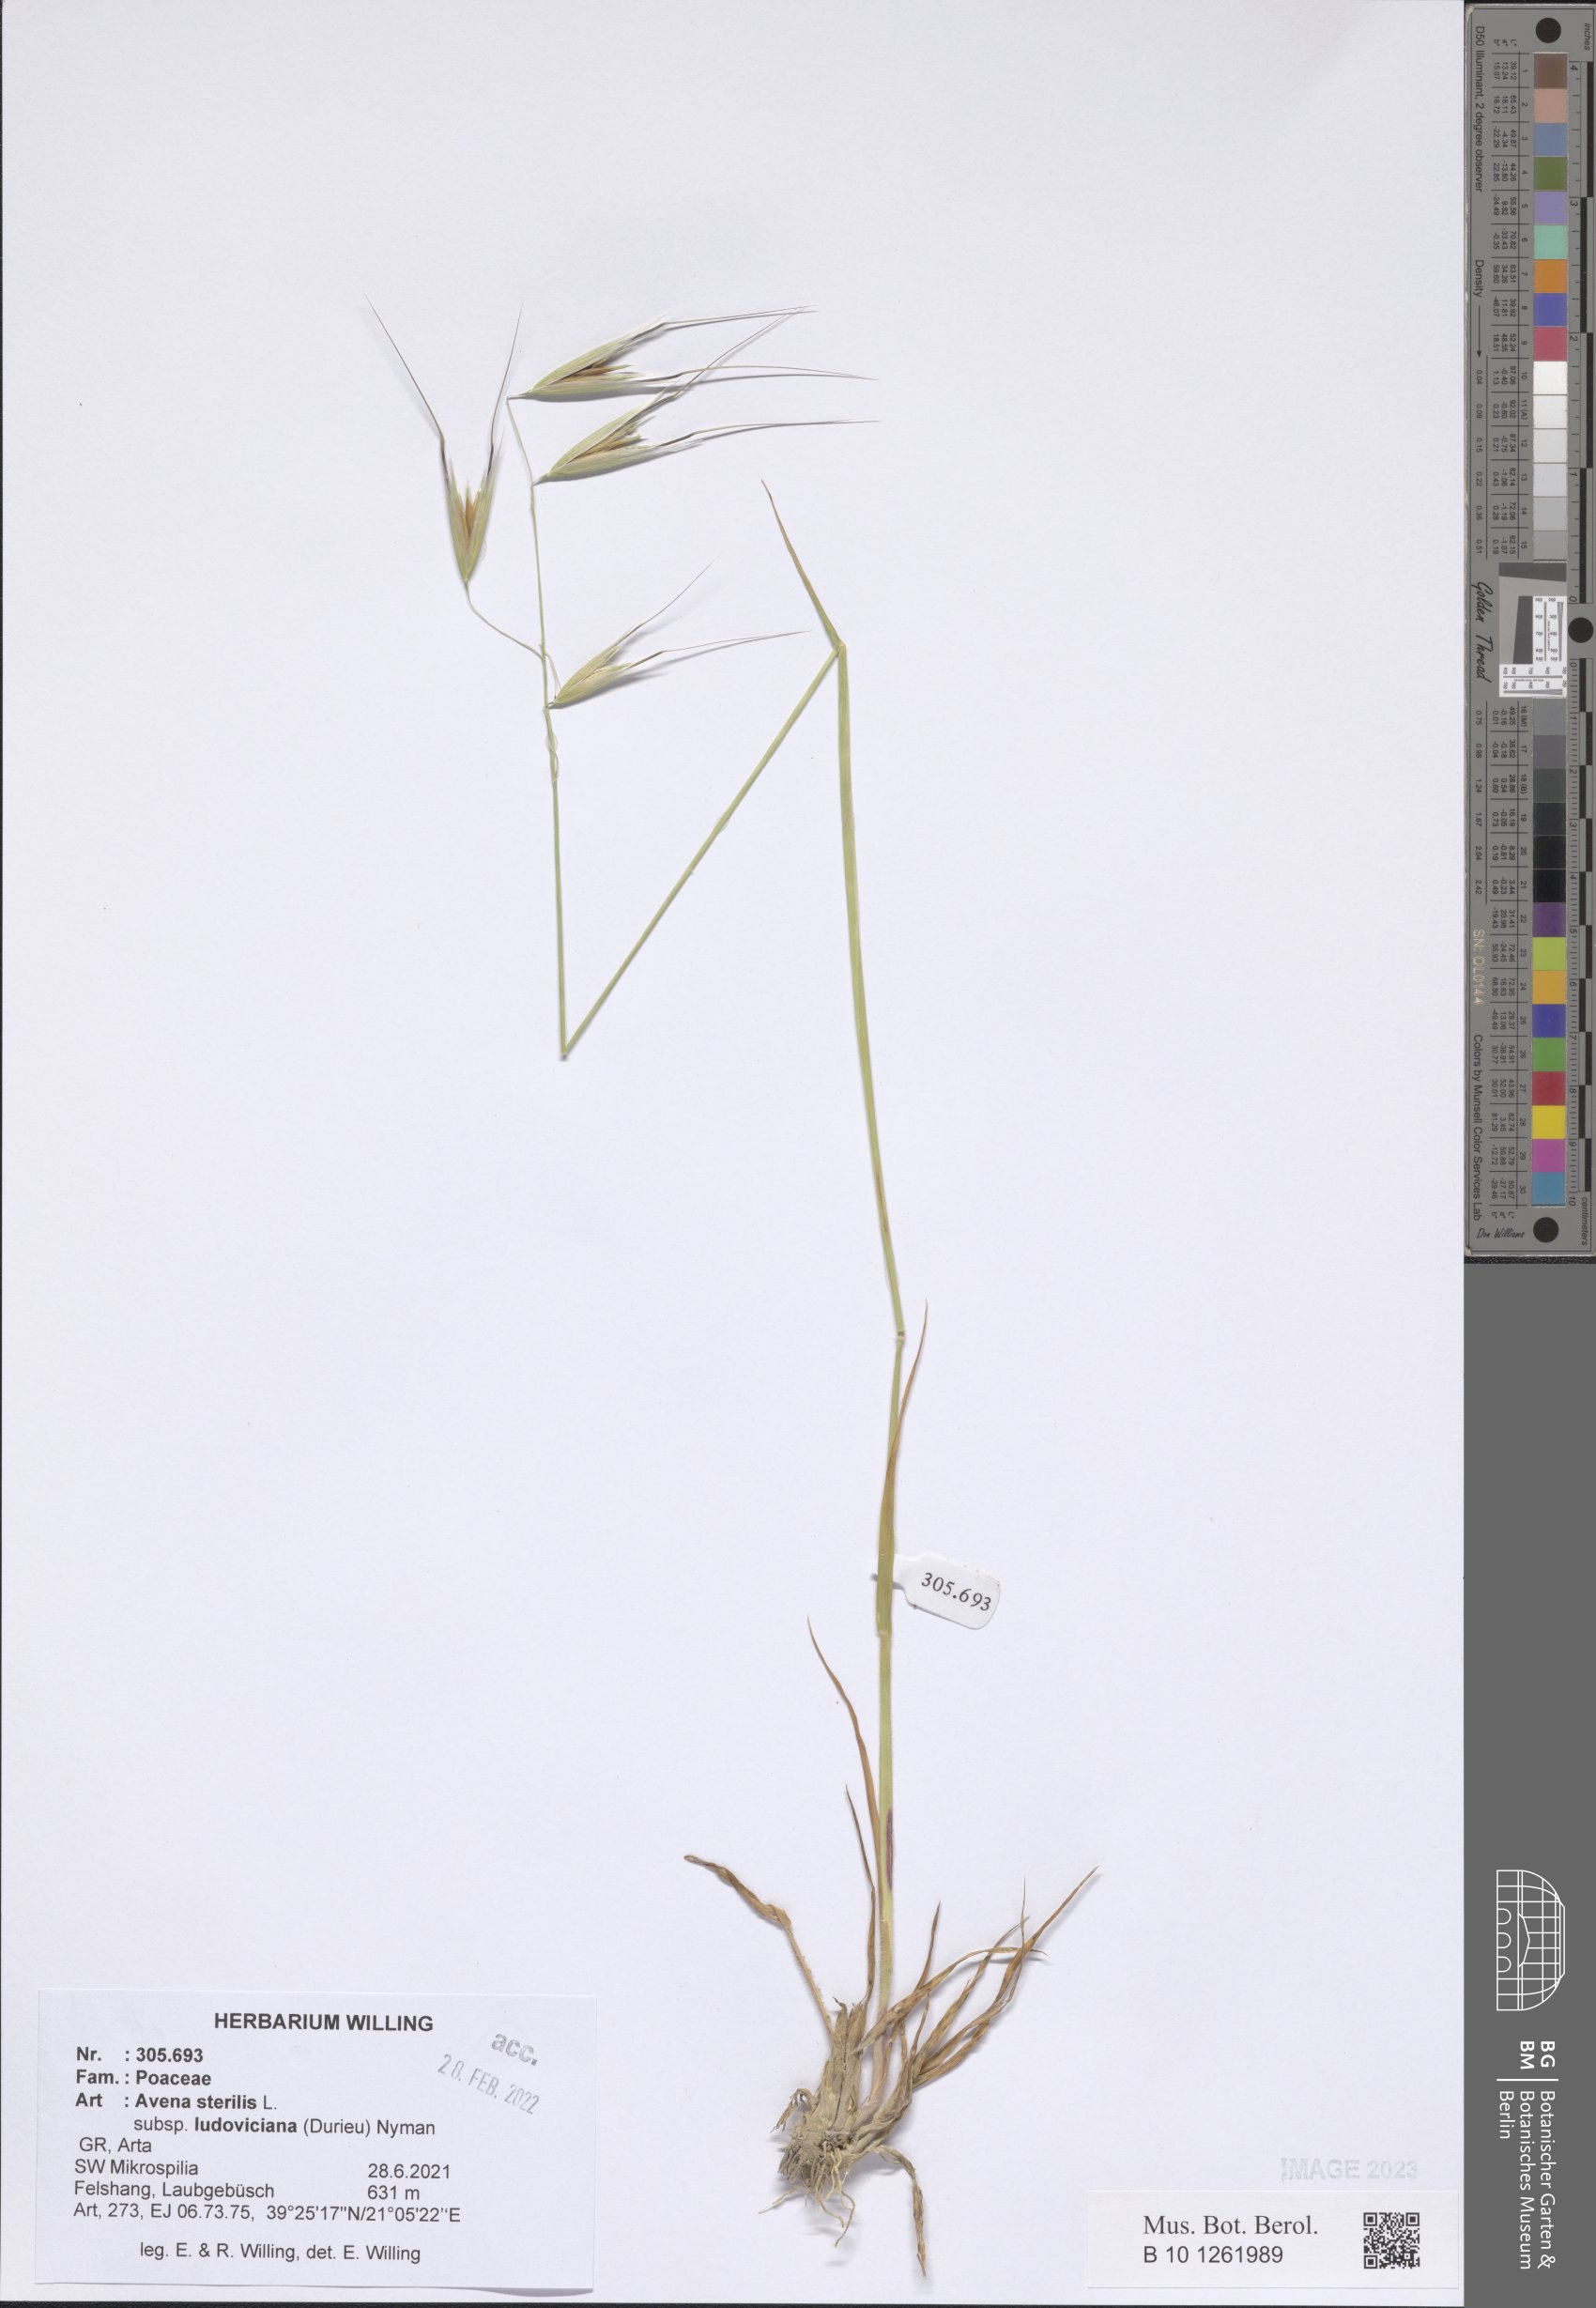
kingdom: Plantae
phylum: Tracheophyta
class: Liliopsida
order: Poales
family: Poaceae
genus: Avena
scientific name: Avena sterilis
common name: Animated oat
